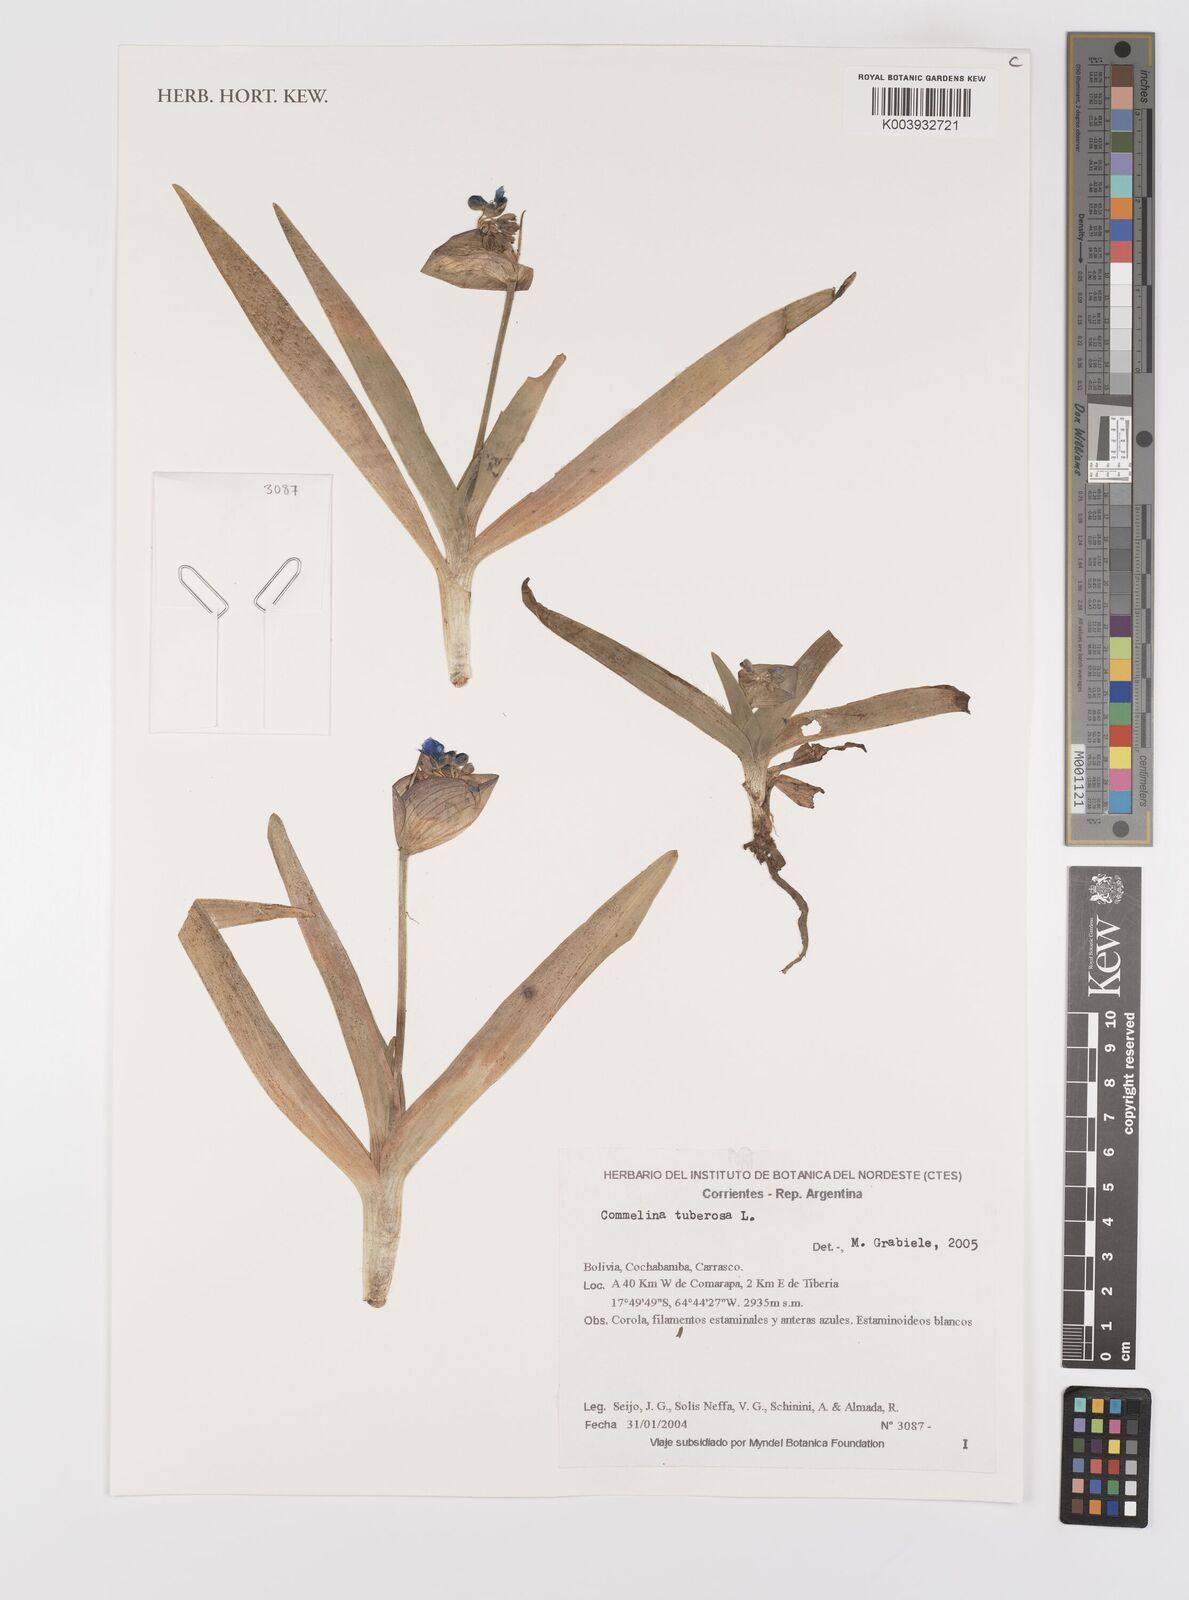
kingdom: Plantae
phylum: Tracheophyta
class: Liliopsida
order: Commelinales
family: Commelinaceae
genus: Commelina
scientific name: Commelina tuberosa
